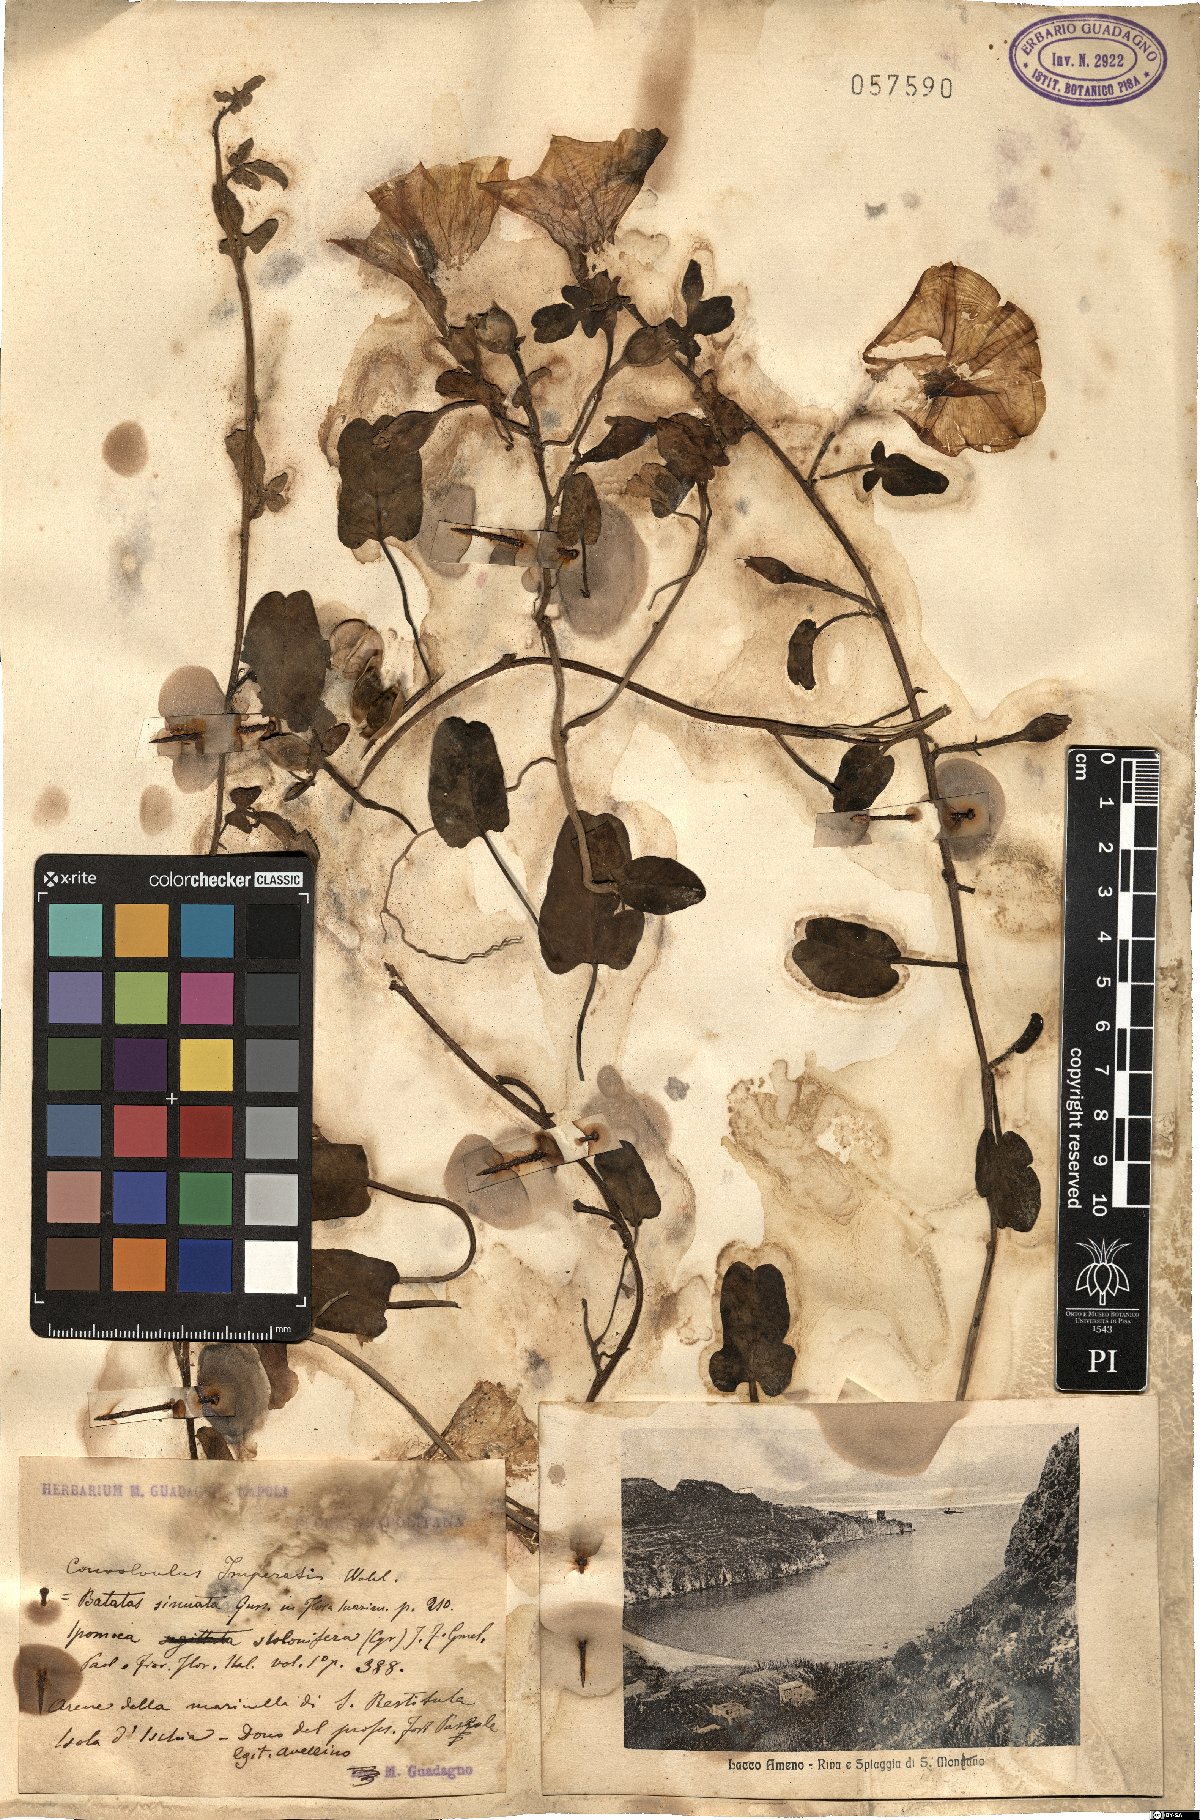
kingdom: Plantae
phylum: Tracheophyta
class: Magnoliopsida
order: Solanales
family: Convolvulaceae
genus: Ipomoea
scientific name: Ipomoea imperati
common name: Fiddle-leaf morning-glory
